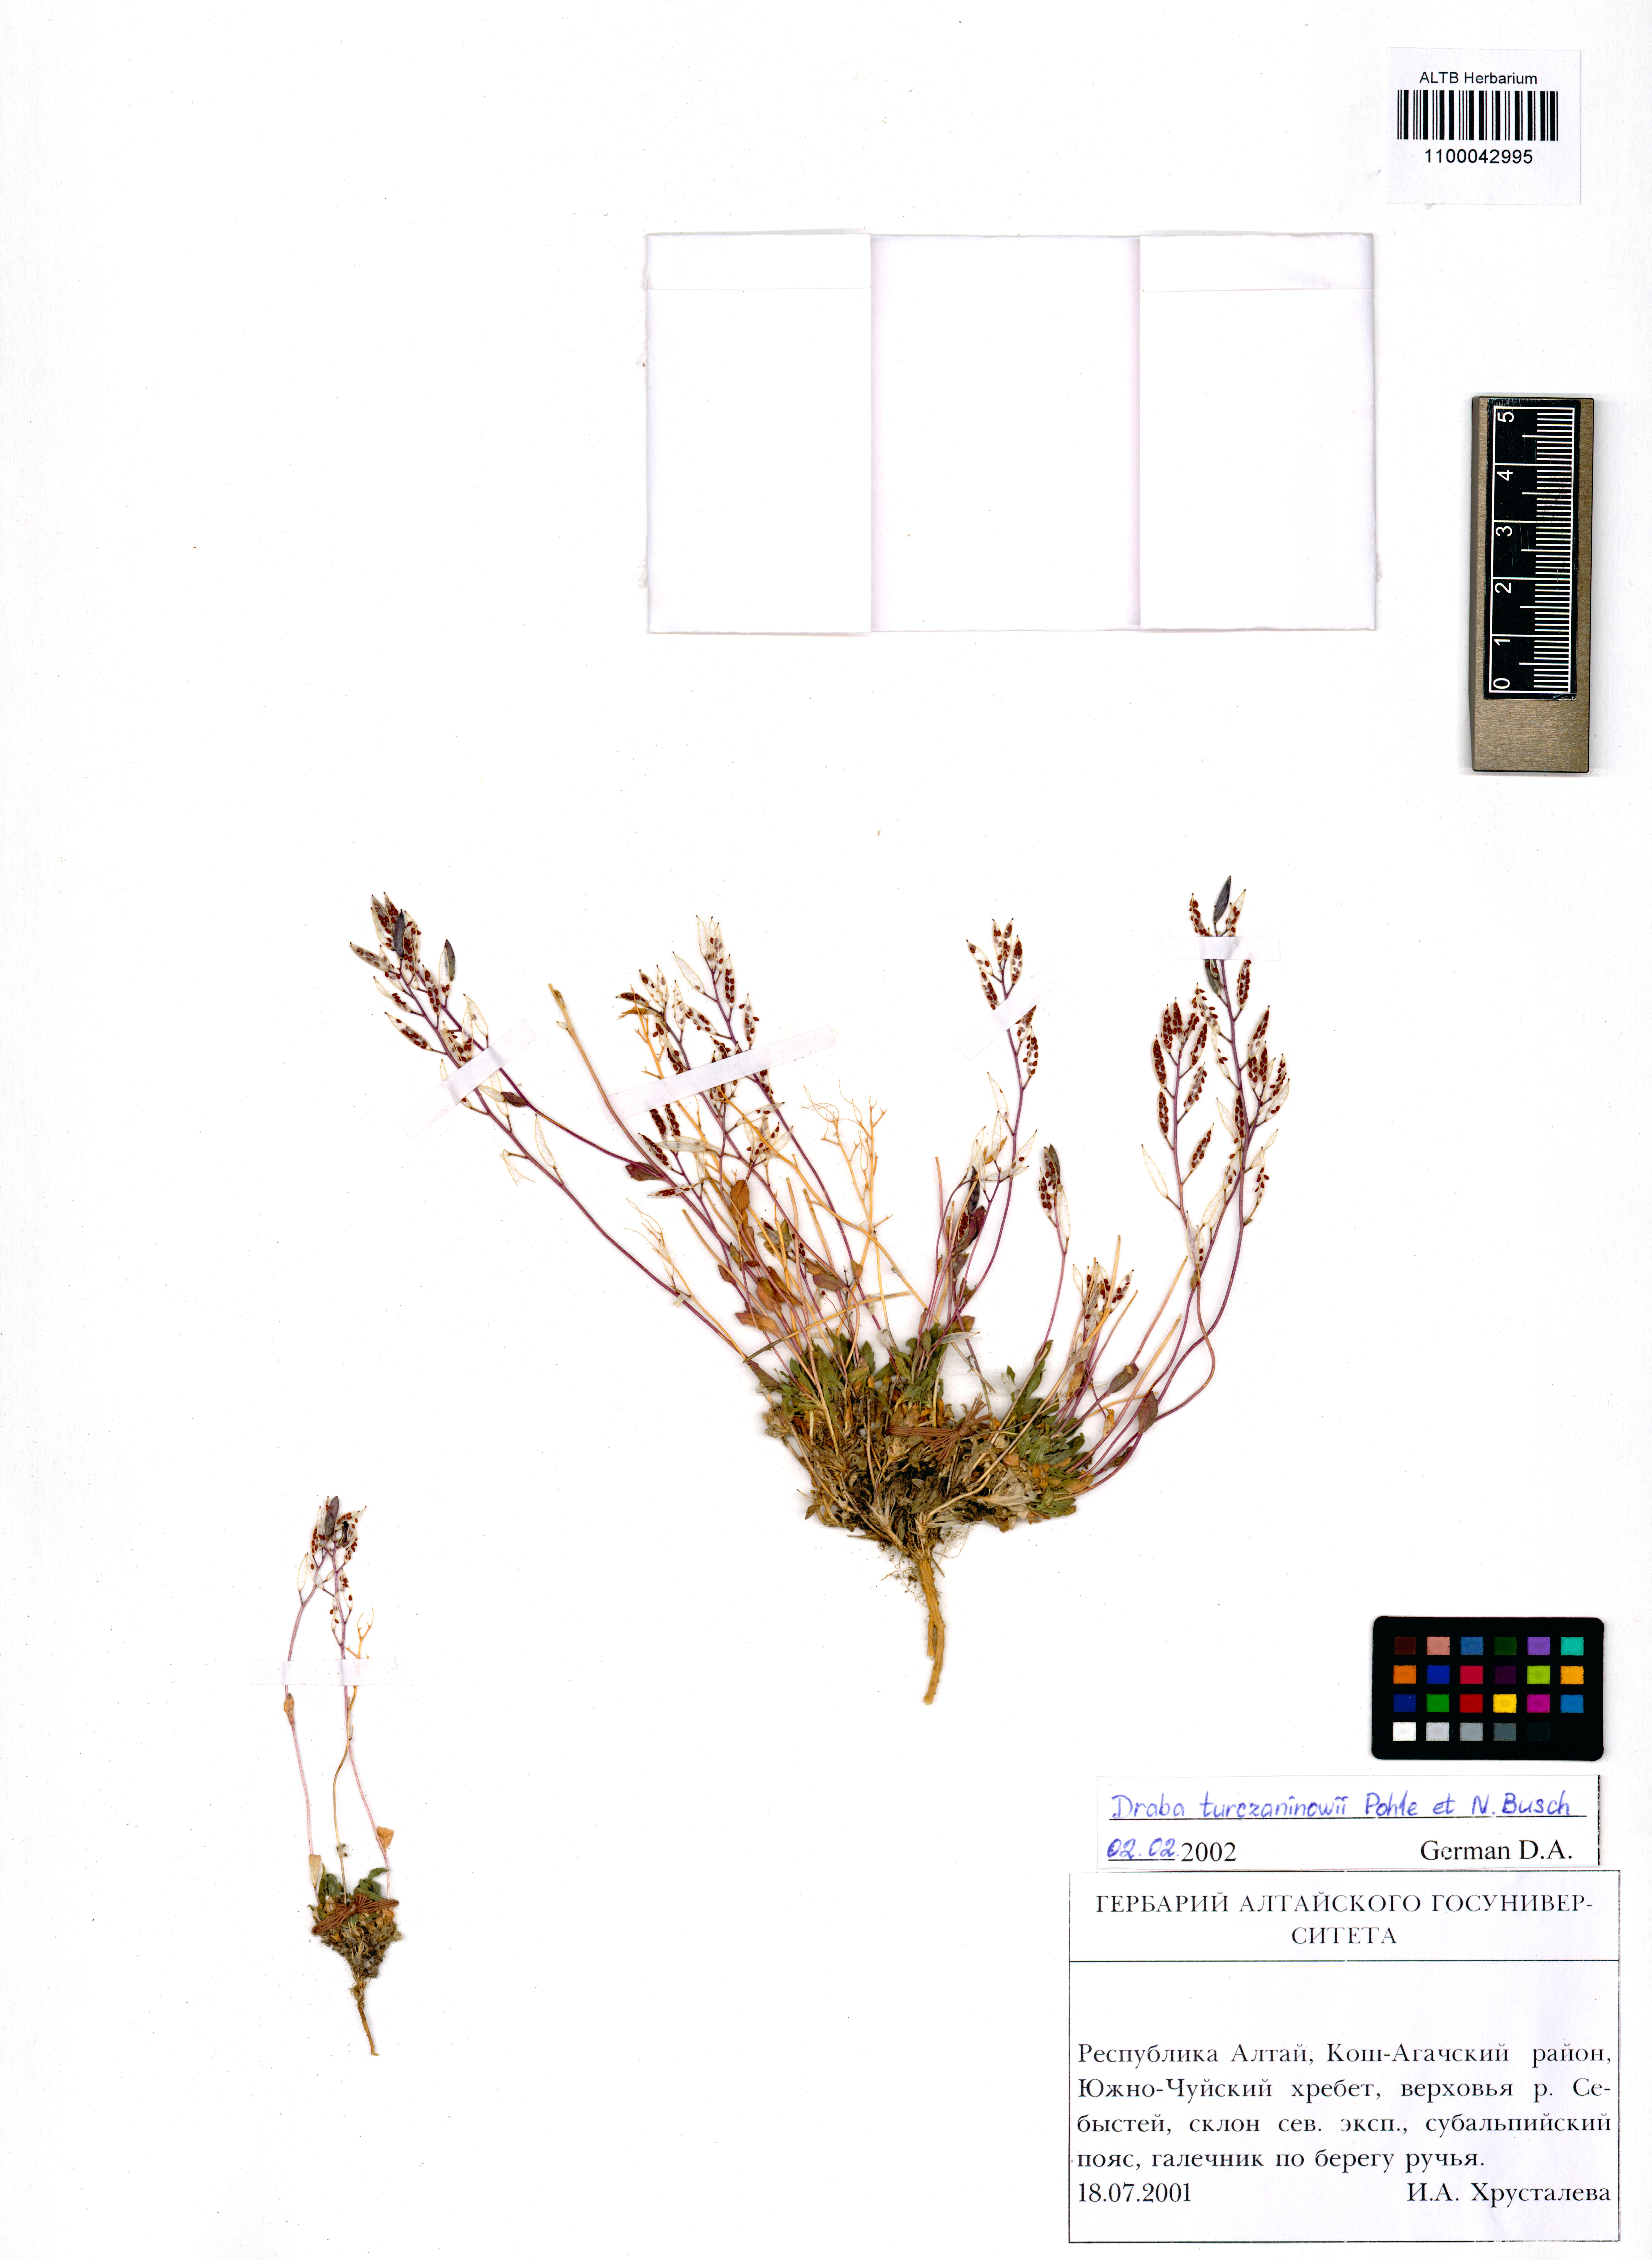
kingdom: Plantae
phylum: Tracheophyta
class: Magnoliopsida
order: Brassicales
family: Brassicaceae
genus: Draba
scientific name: Draba turczaninovii
